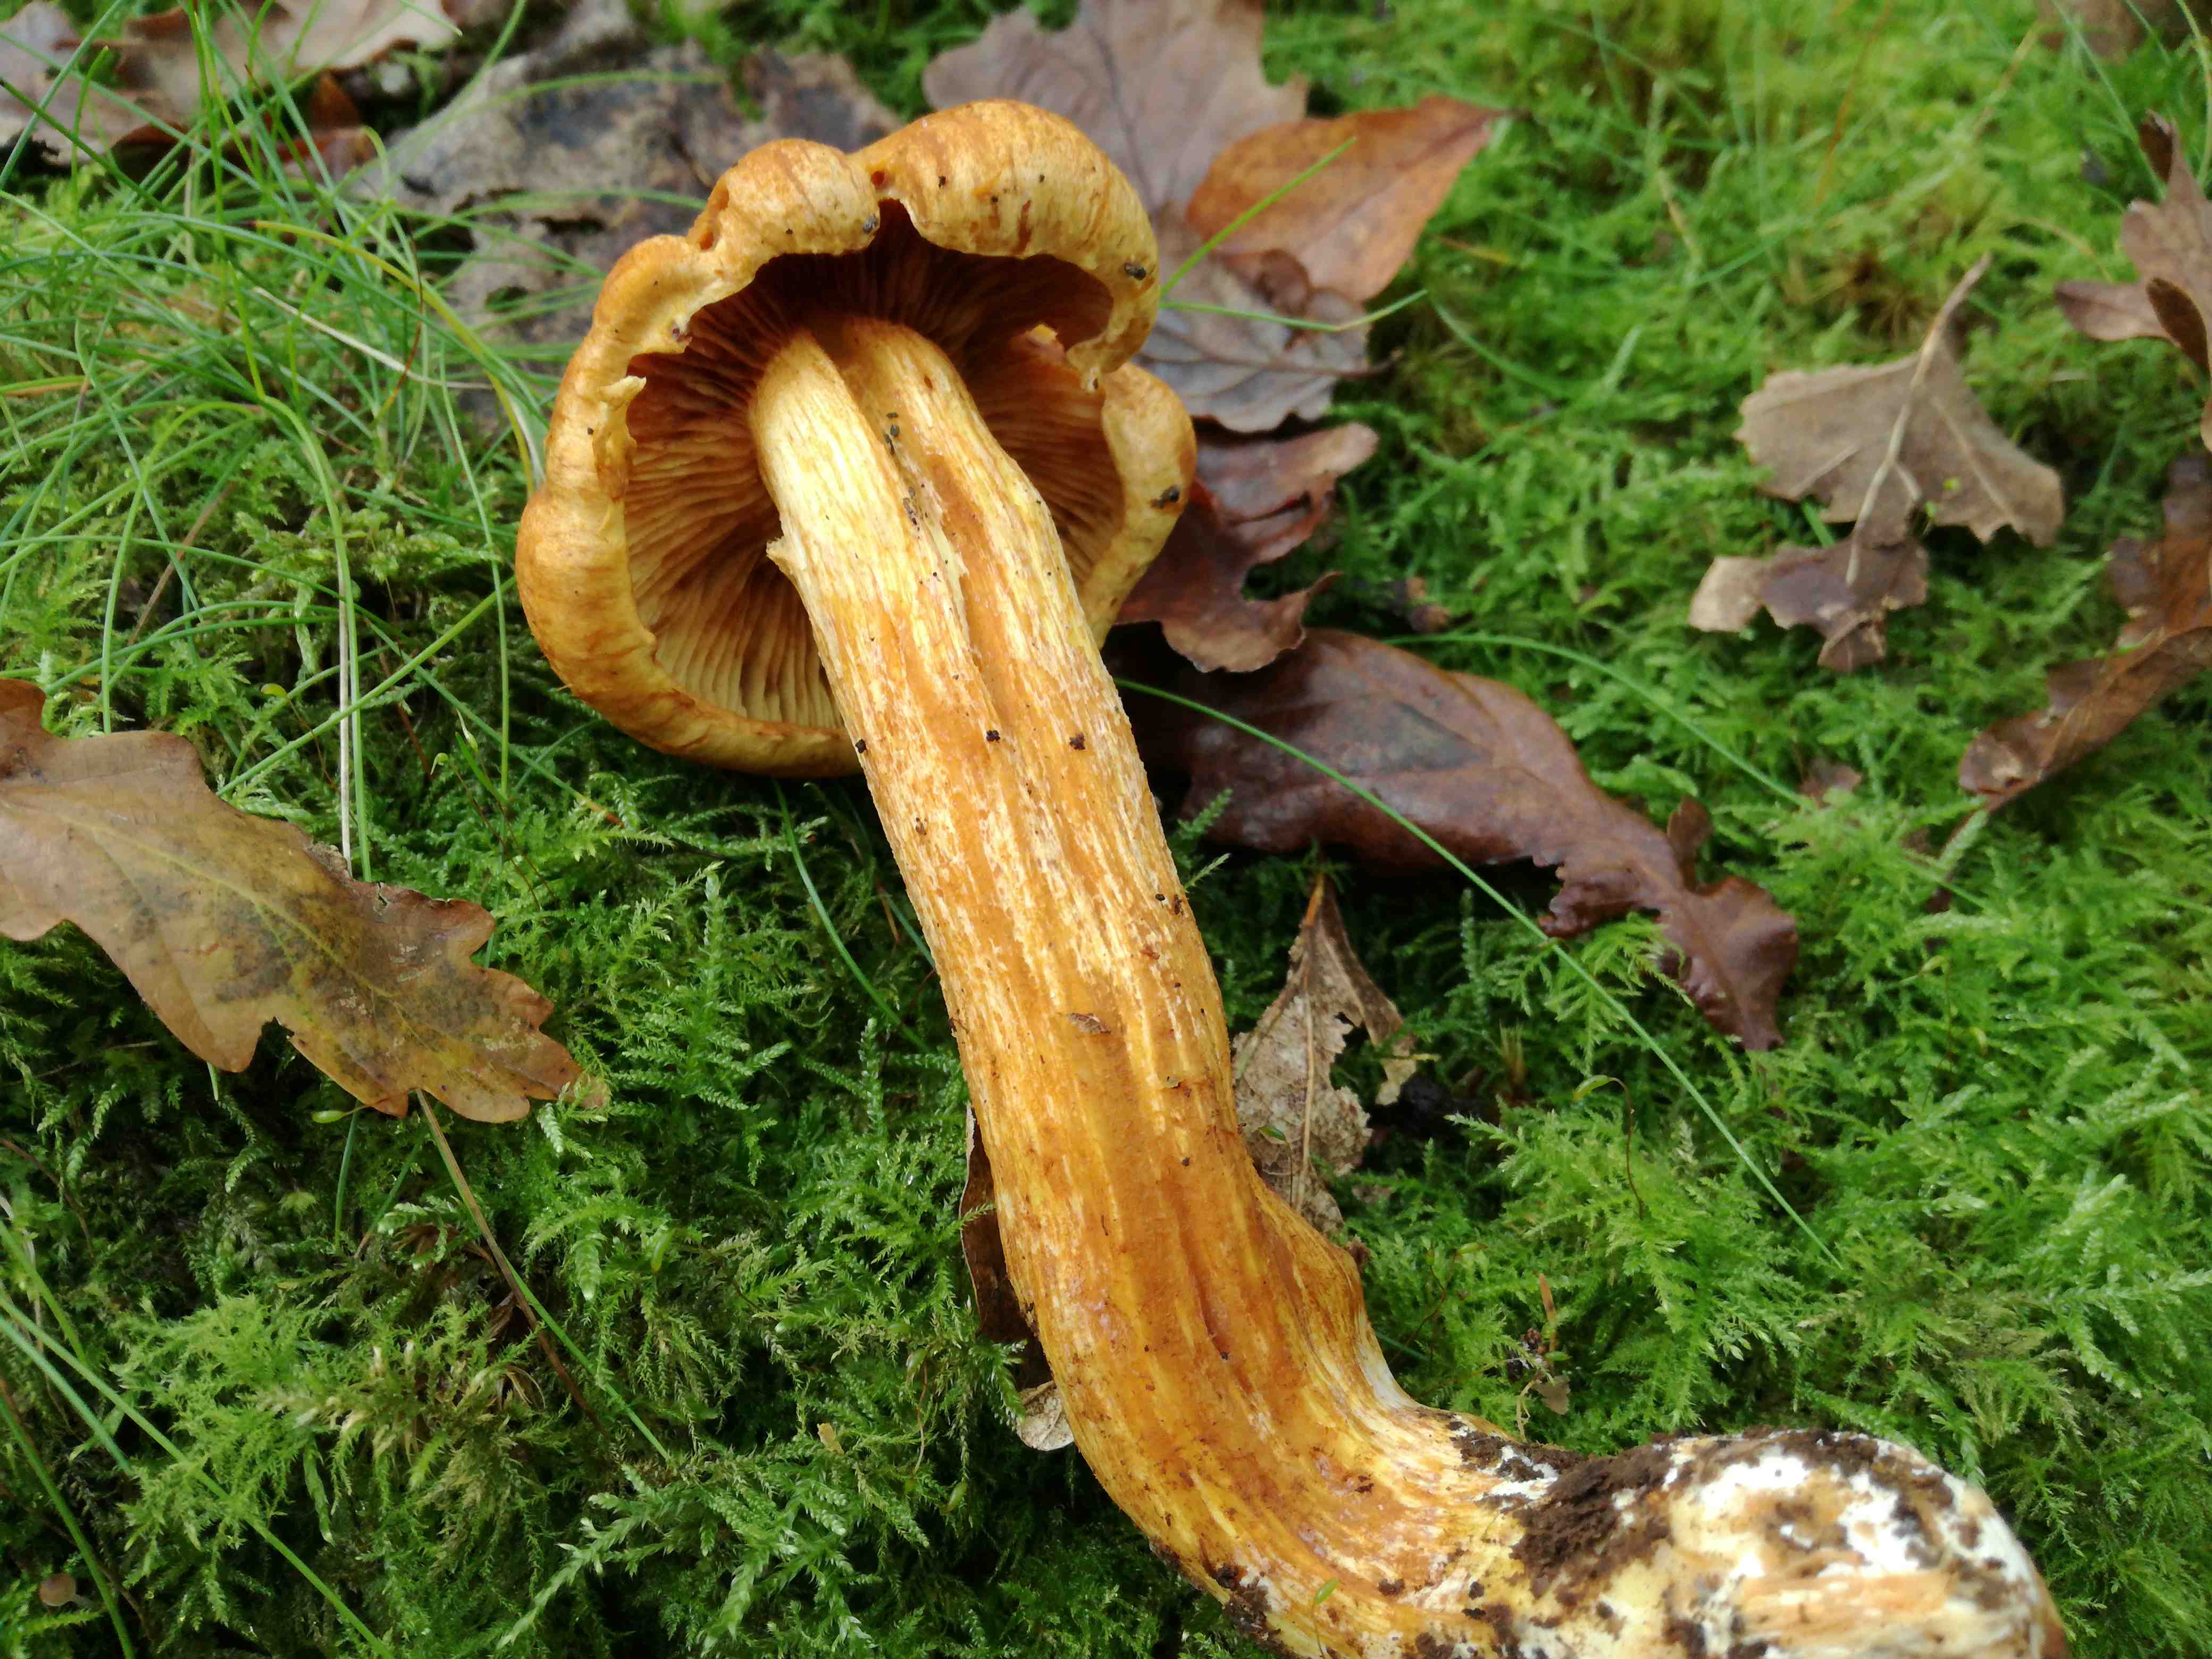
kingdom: Fungi
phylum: Basidiomycota
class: Agaricomycetes
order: Agaricales
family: Hymenogastraceae
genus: Gymnopilus
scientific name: Gymnopilus spectabilis
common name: fibret flammehat
